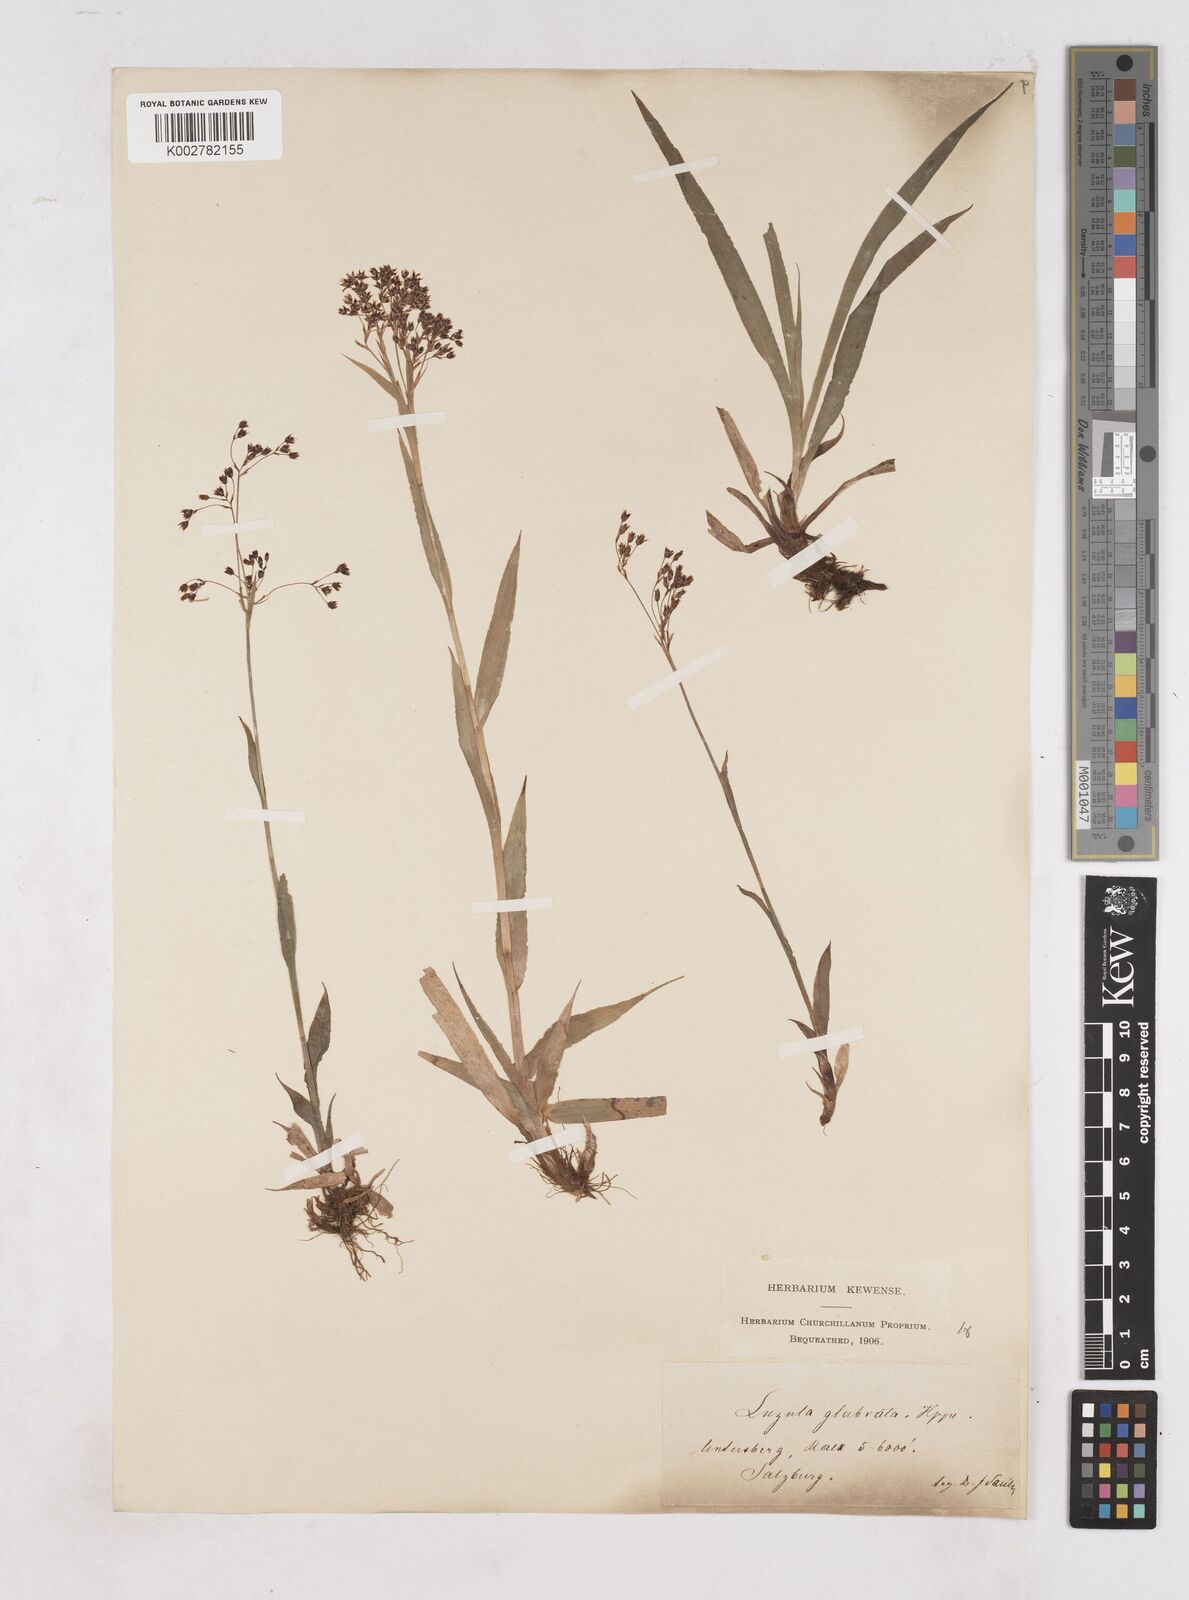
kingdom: Plantae
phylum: Tracheophyta
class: Liliopsida
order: Poales
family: Juncaceae
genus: Luzula
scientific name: Luzula glabrata
